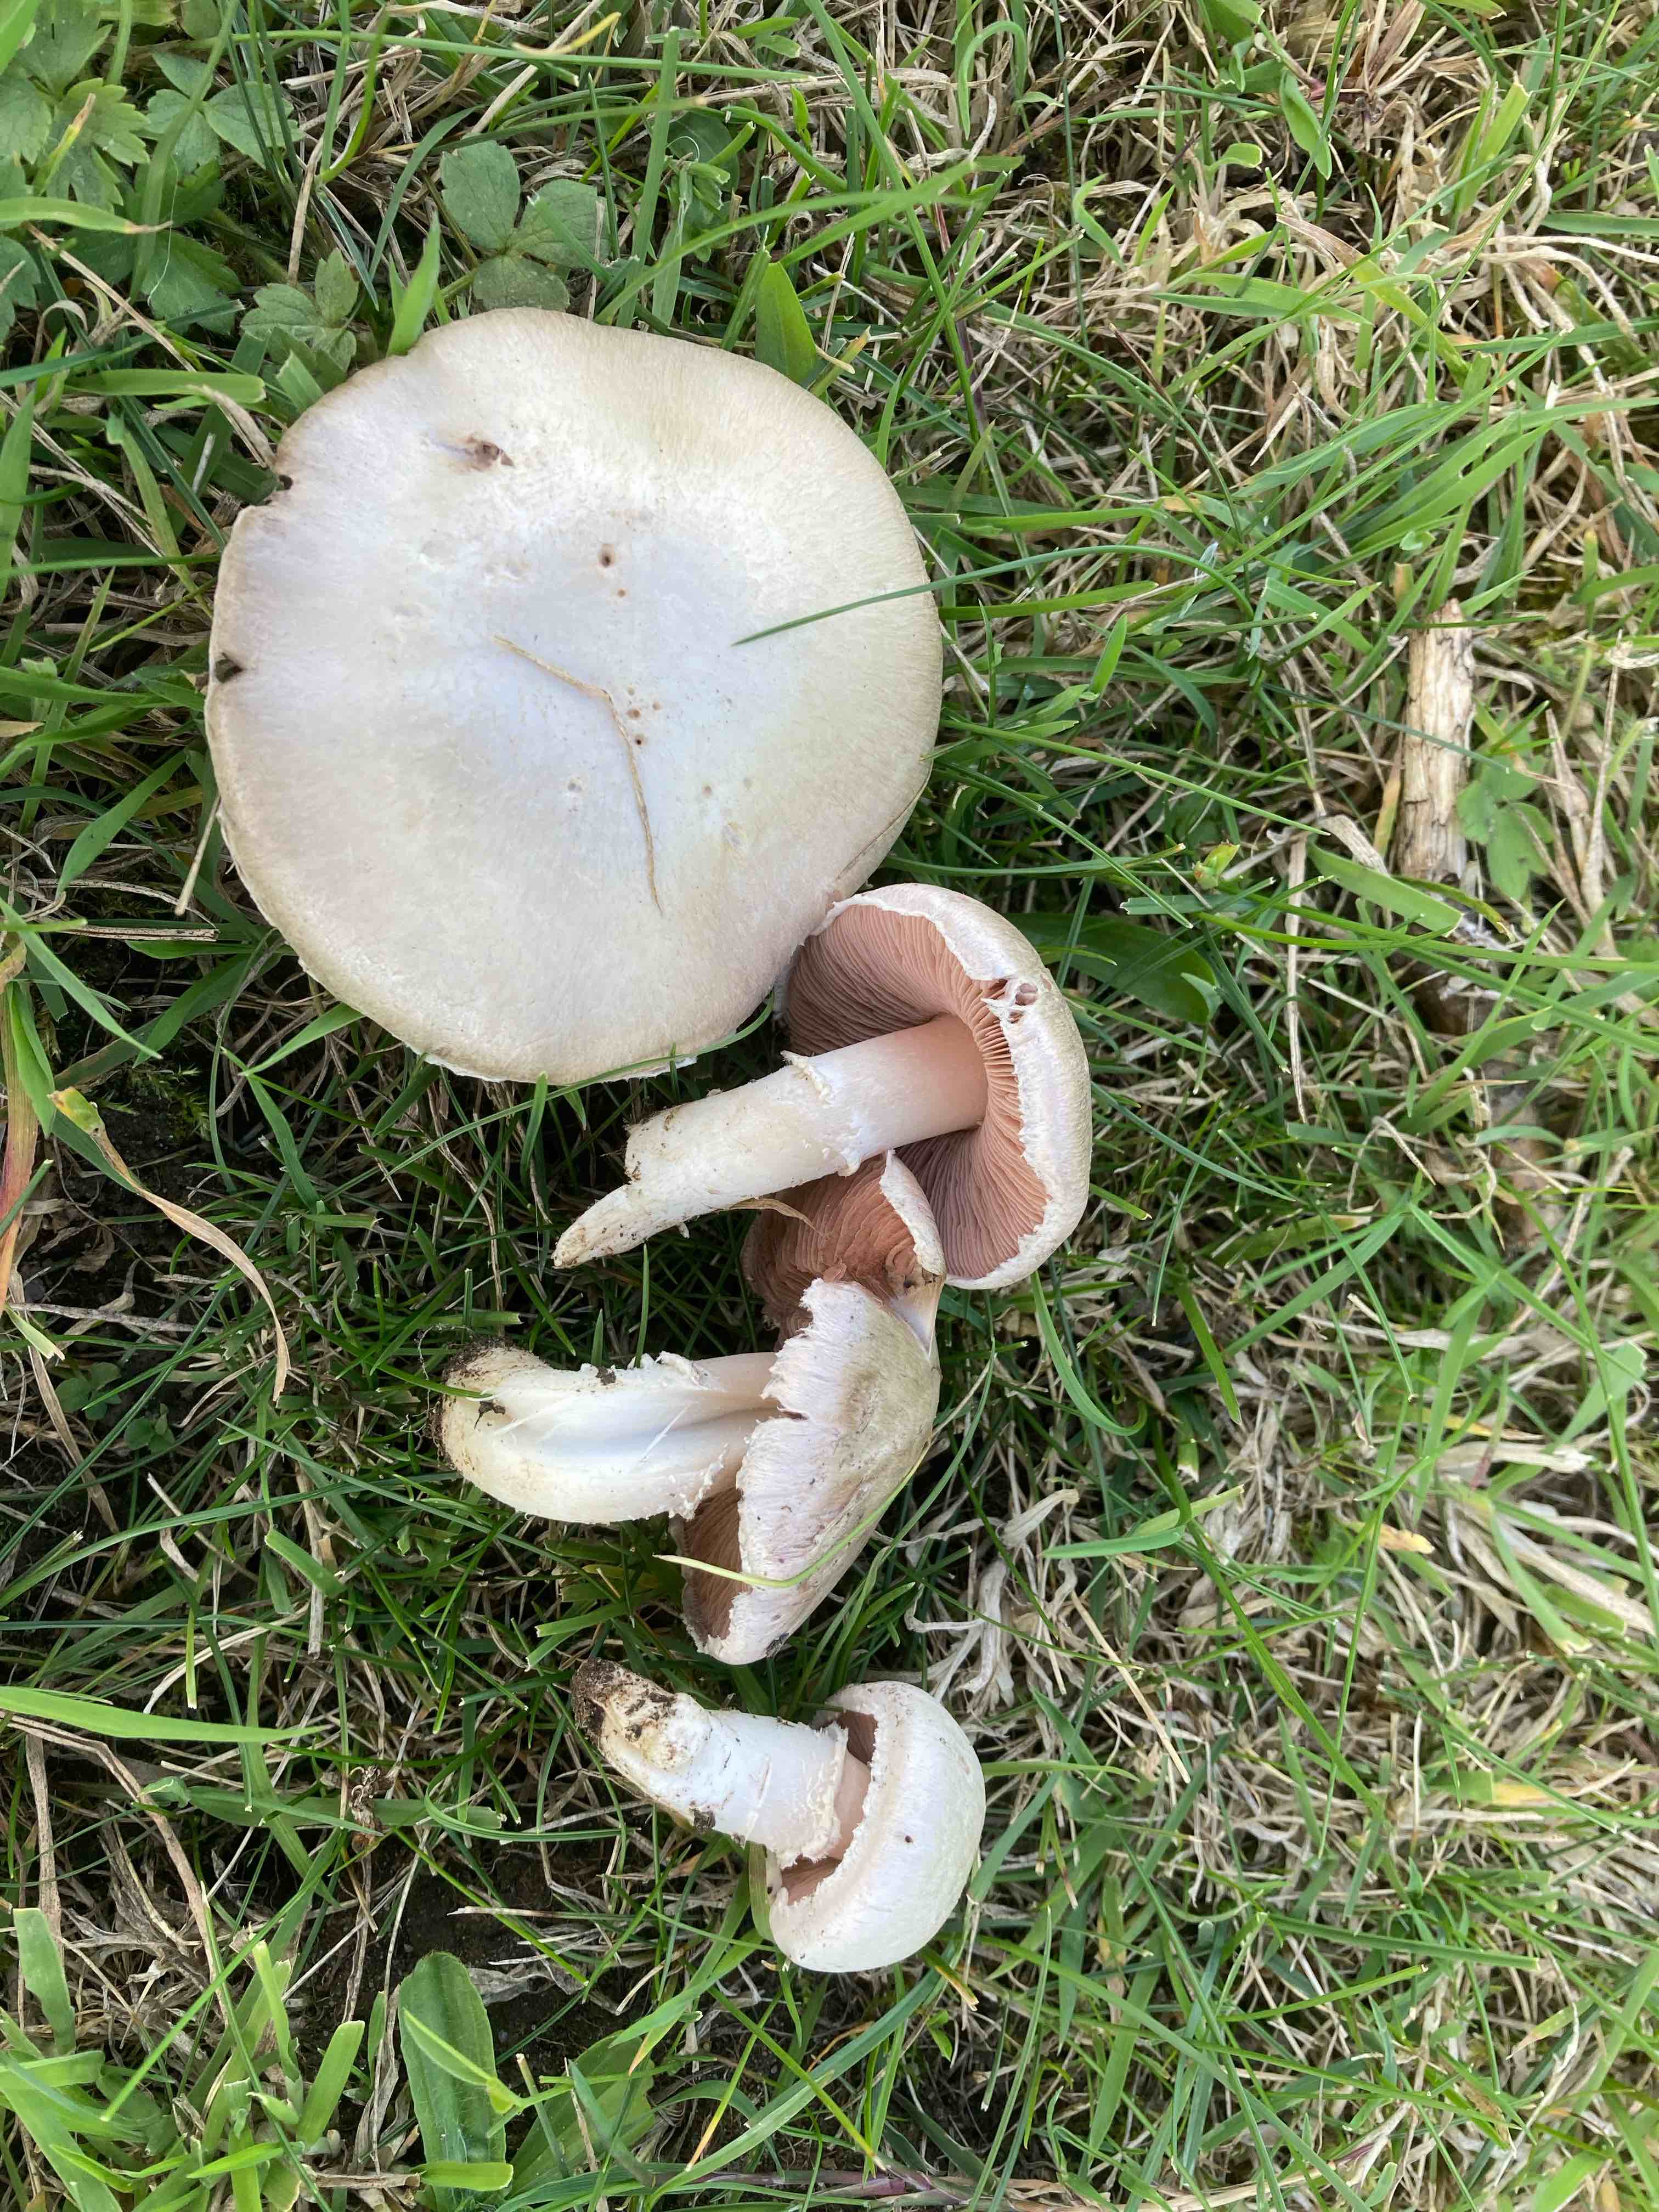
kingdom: Fungi
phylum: Basidiomycota
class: Agaricomycetes
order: Agaricales
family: Agaricaceae
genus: Agaricus
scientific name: Agaricus campestris
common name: mark-champignon
